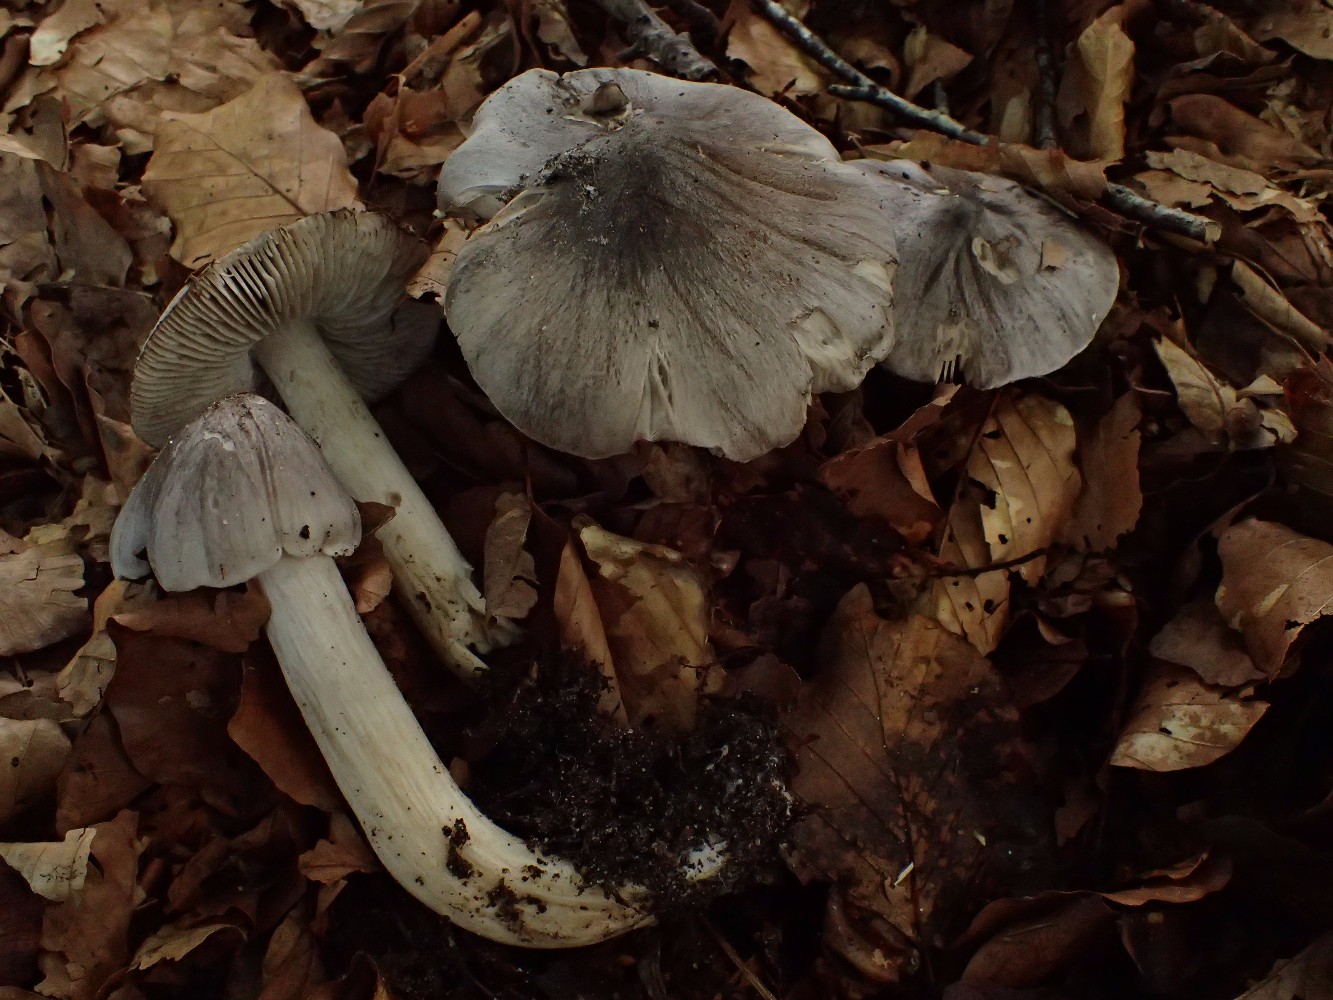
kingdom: Fungi
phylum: Basidiomycota
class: Agaricomycetes
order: Agaricales
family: Tricholomataceae
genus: Tricholoma
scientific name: Tricholoma sciodes
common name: stribet ridderhat
